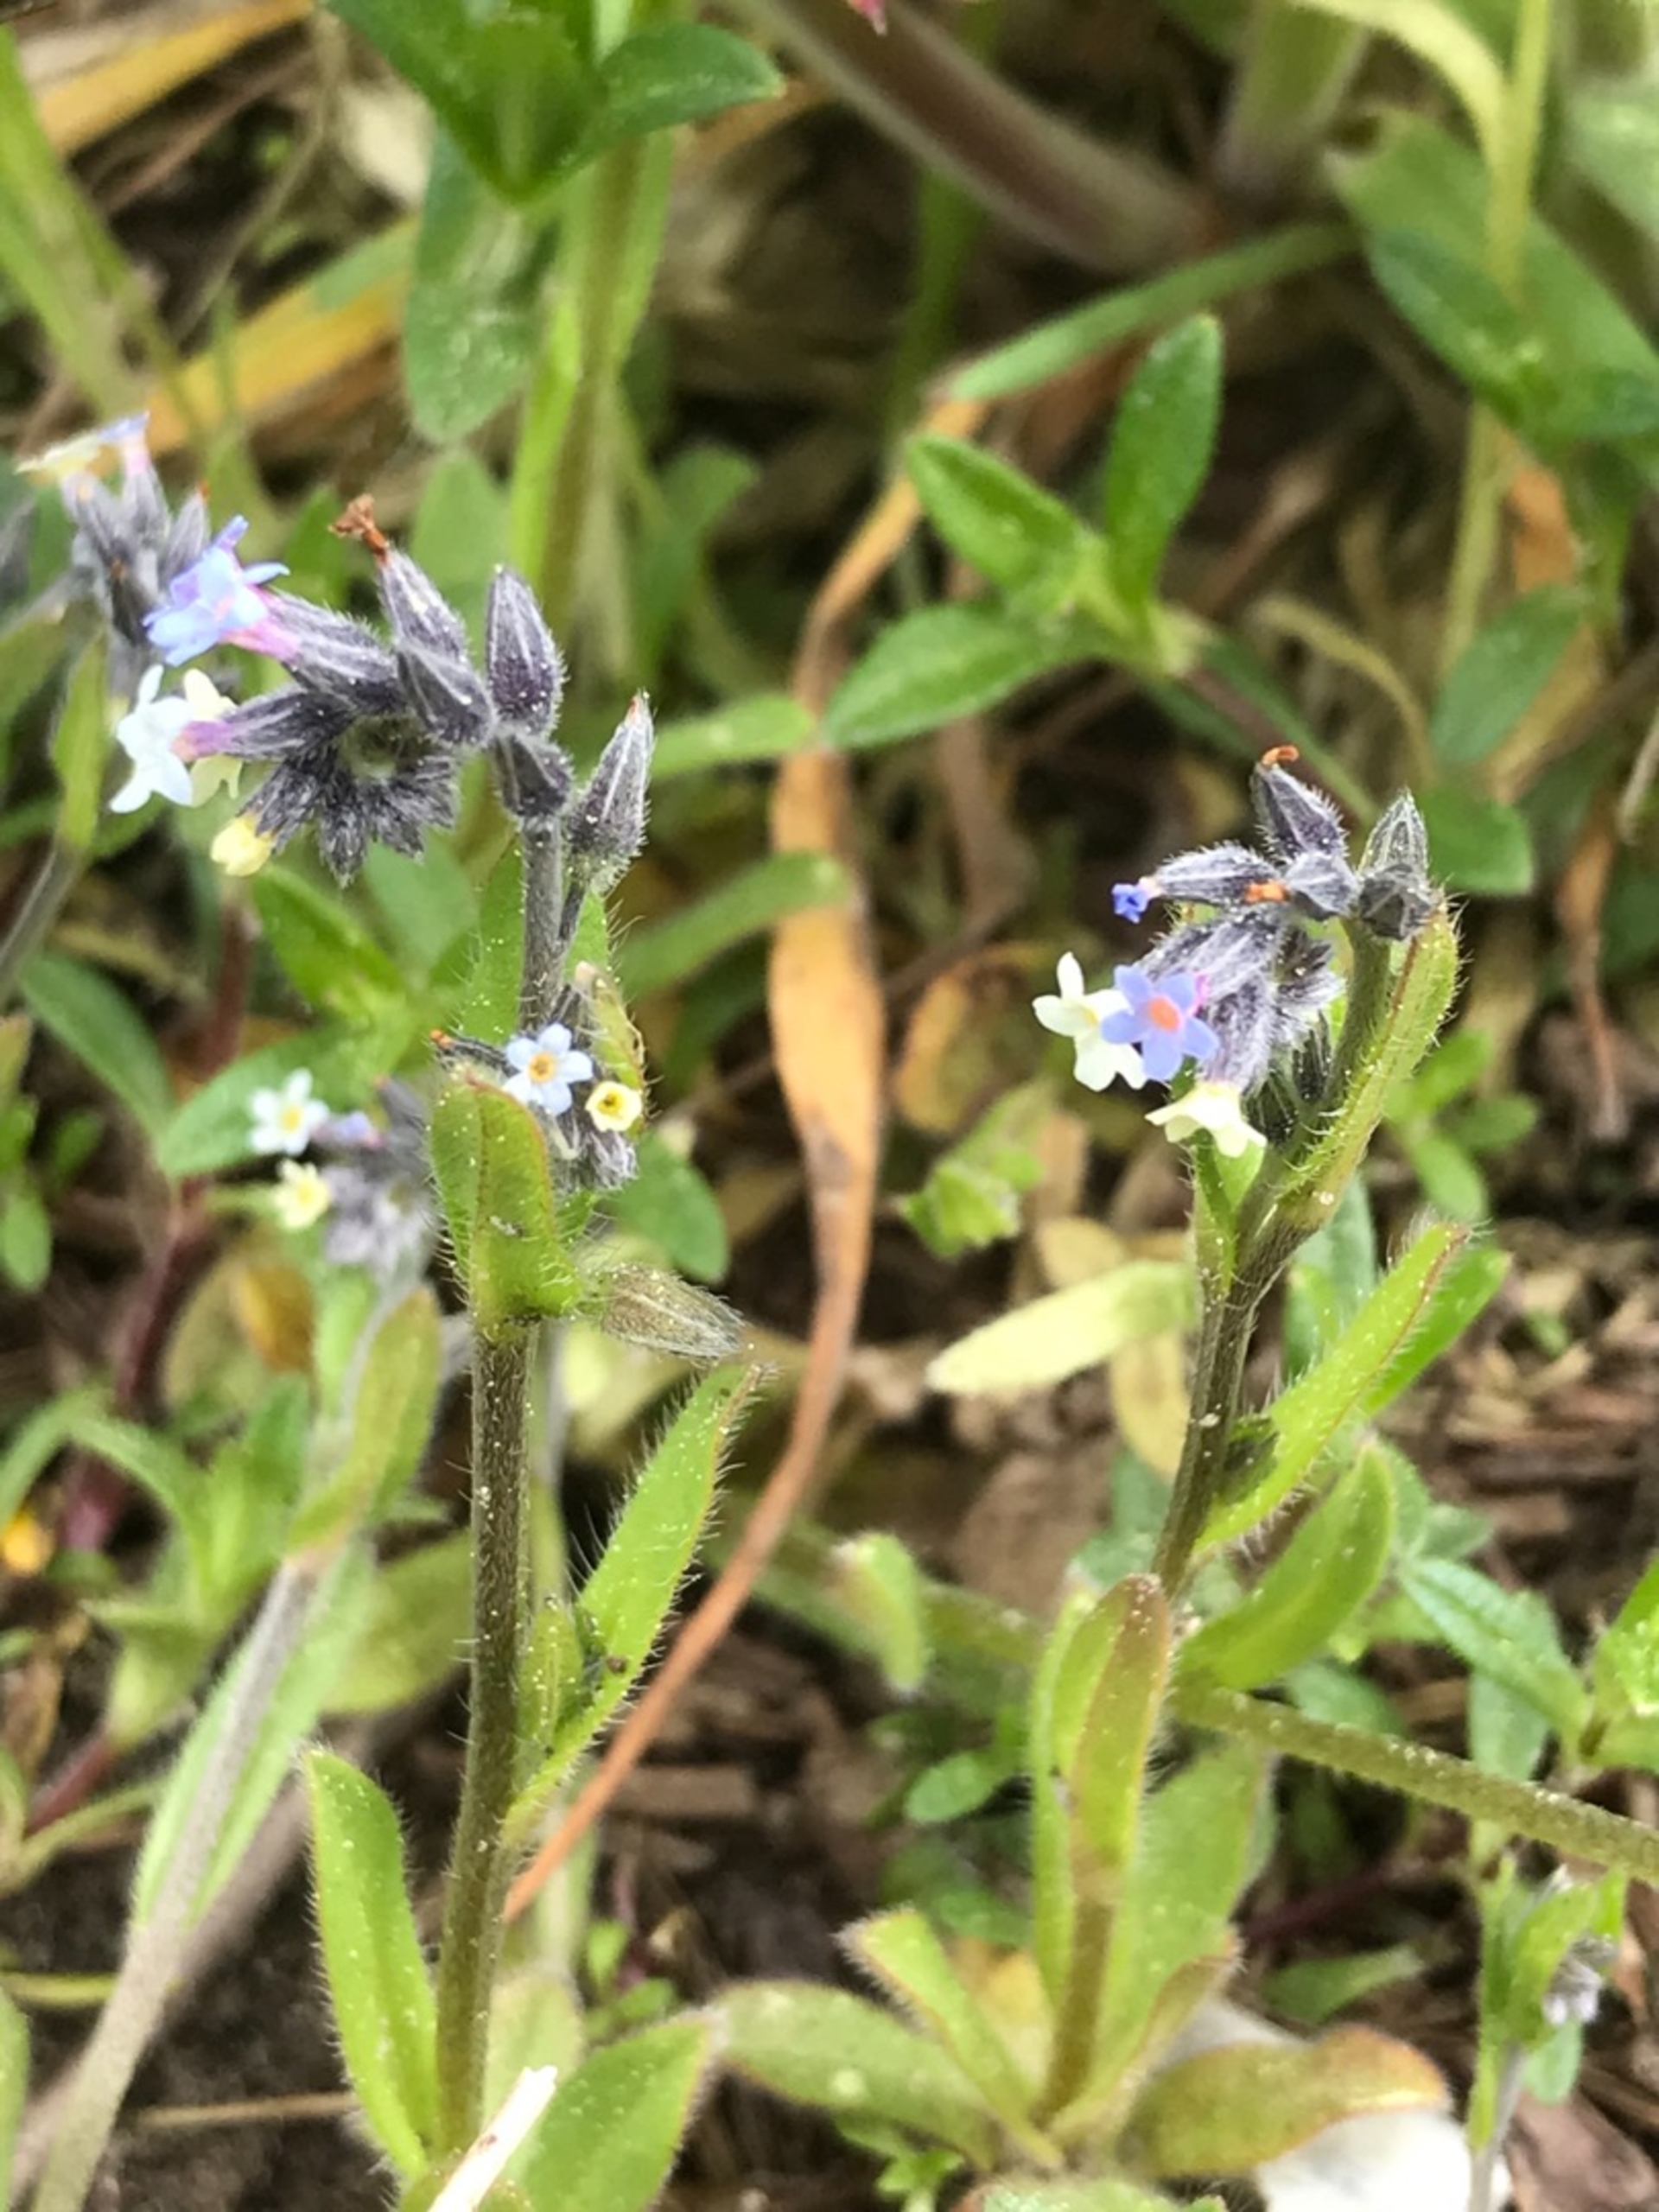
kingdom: Plantae
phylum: Tracheophyta
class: Magnoliopsida
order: Boraginales
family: Boraginaceae
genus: Myosotis
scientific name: Myosotis discolor
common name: Forskelligfarvet forglemmigej
